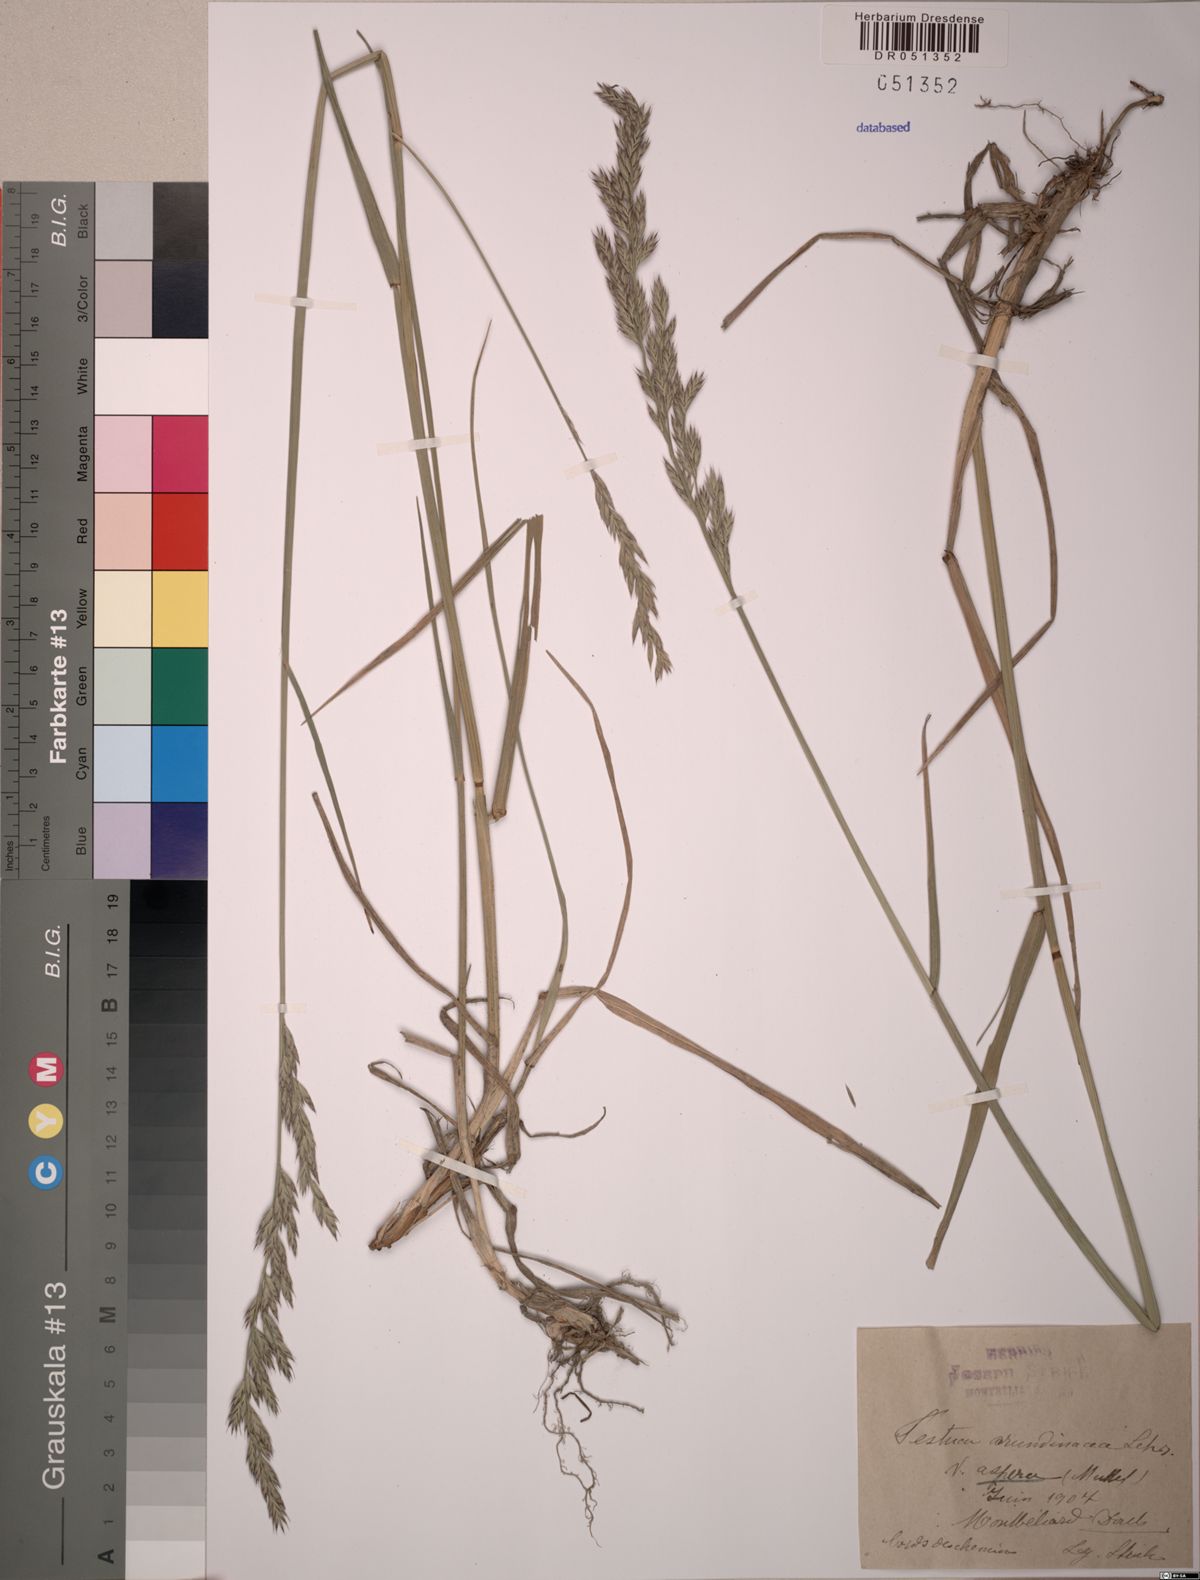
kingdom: Plantae
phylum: Tracheophyta
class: Liliopsida
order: Poales
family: Poaceae
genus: Lolium
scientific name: Lolium arundinaceum
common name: Reed fescue
